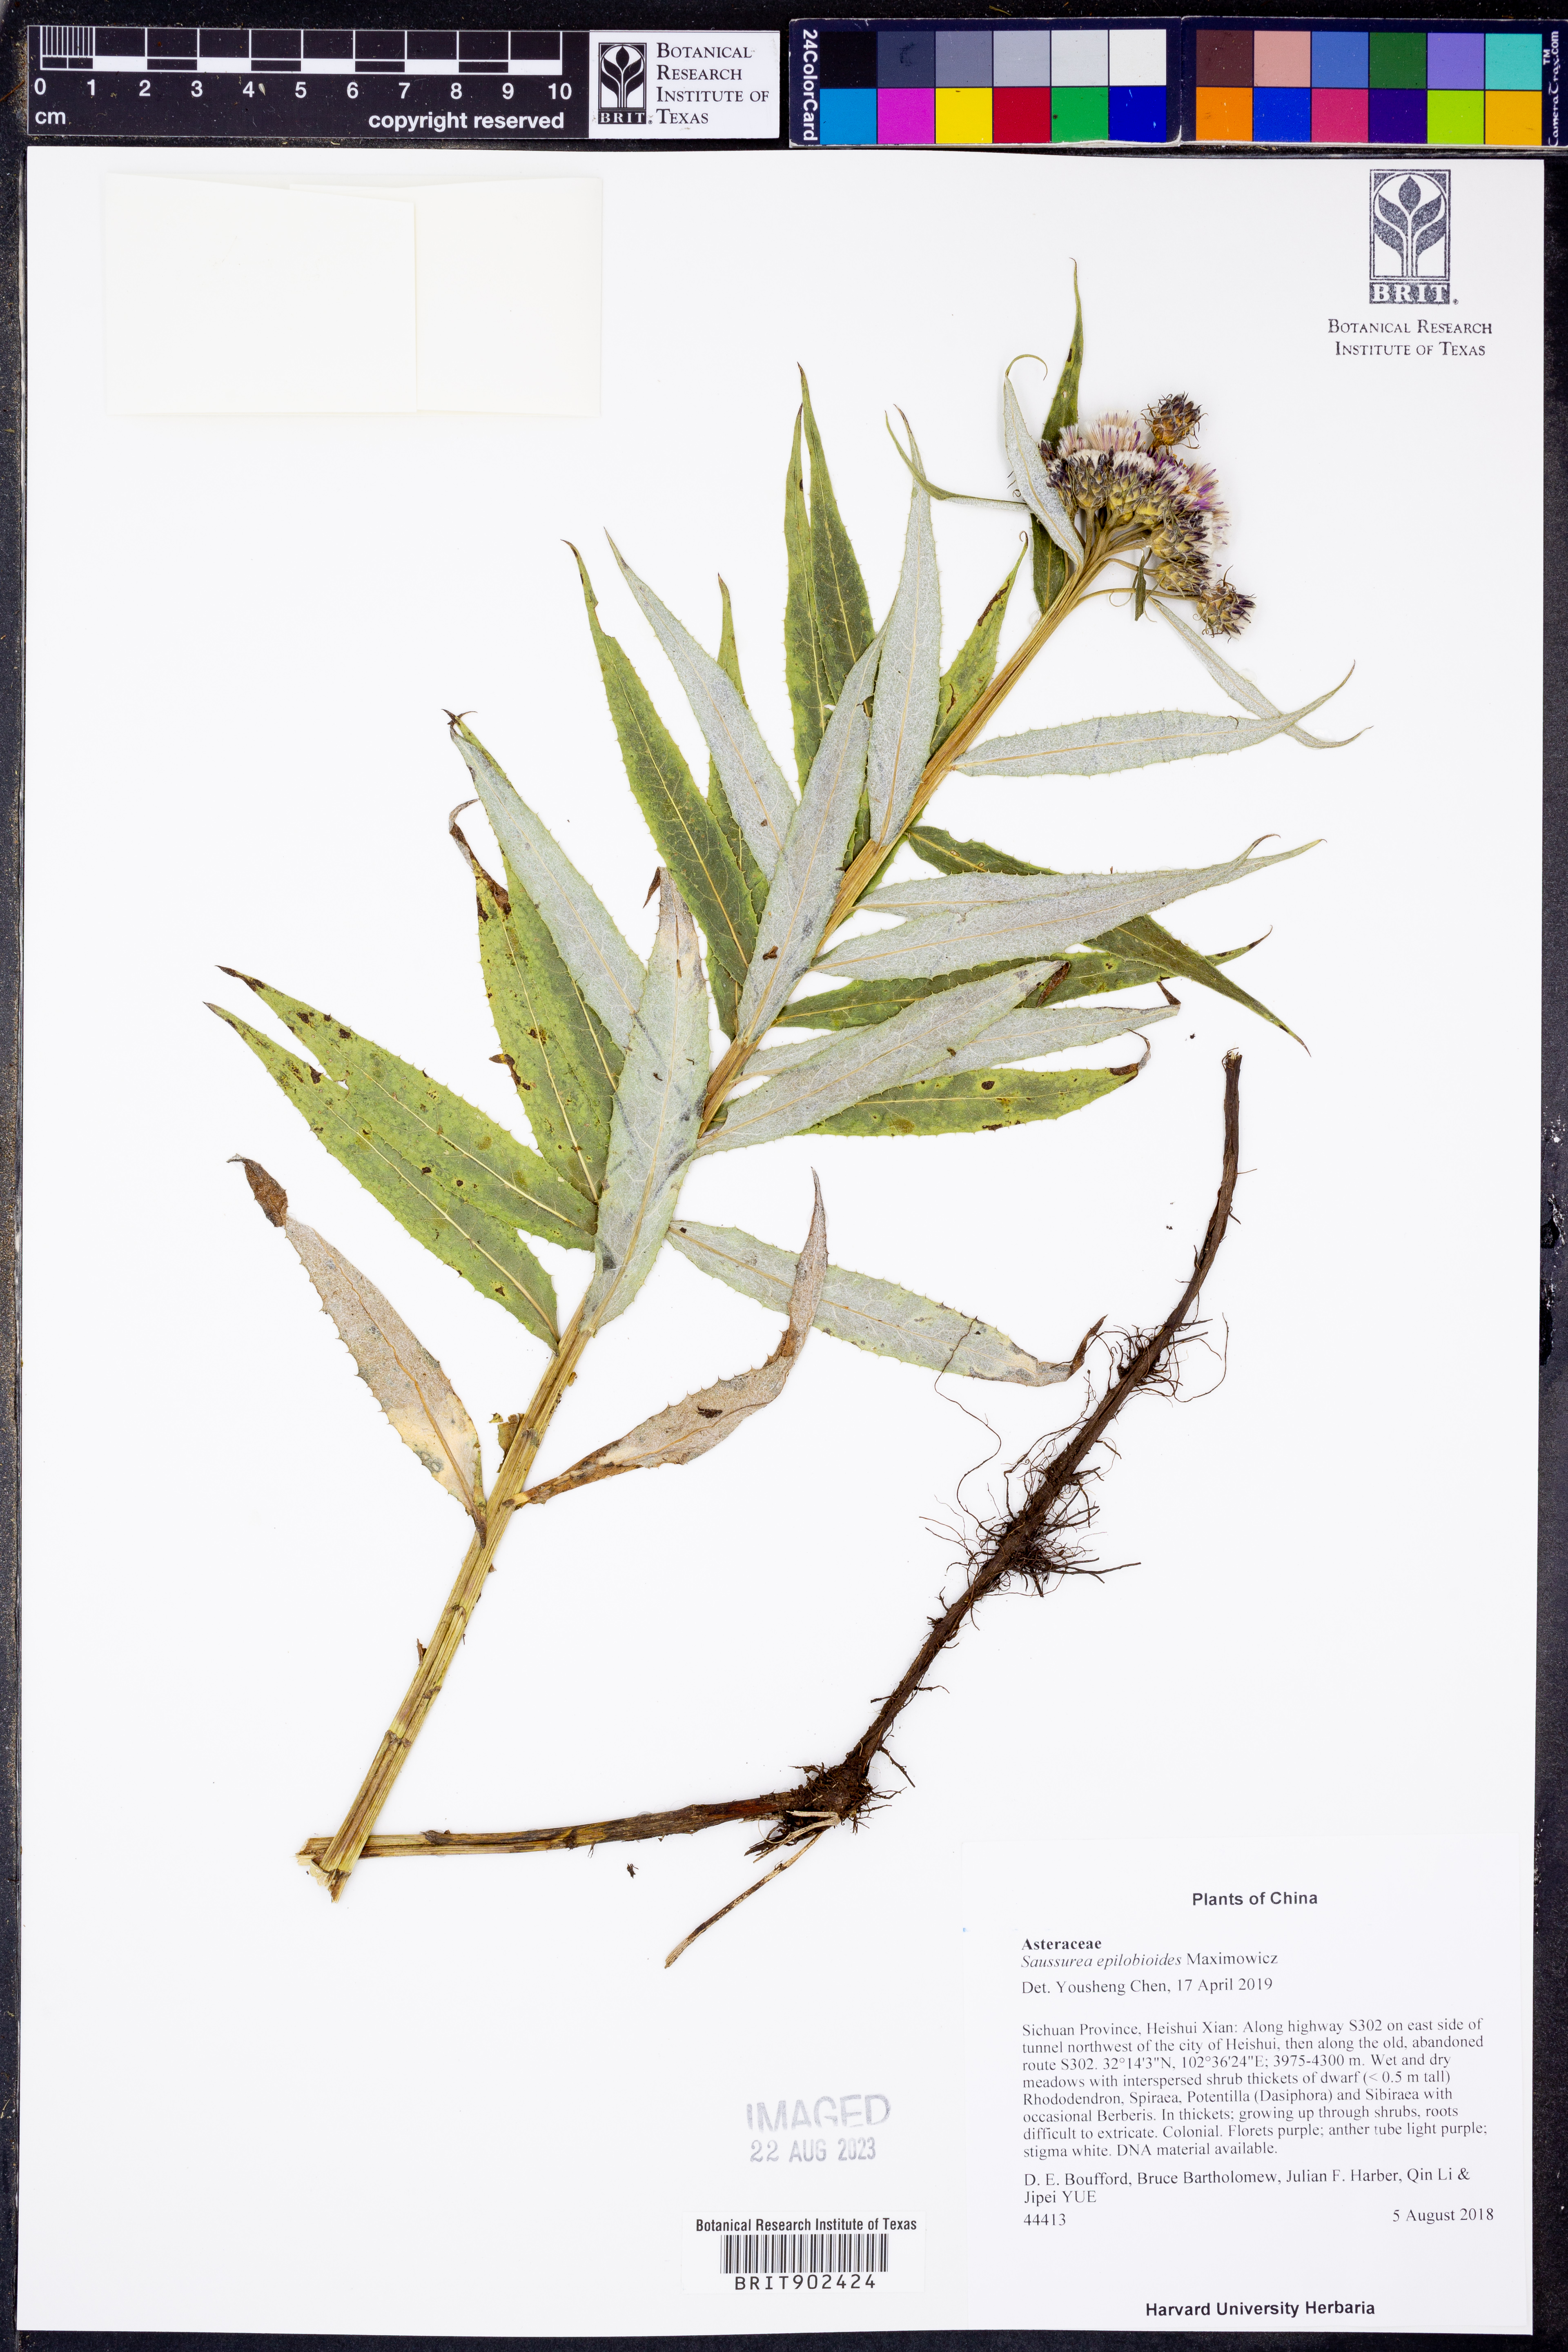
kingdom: Plantae
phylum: Tracheophyta
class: Magnoliopsida
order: Asterales
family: Asteraceae
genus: Saussurea
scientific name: Saussurea epilobioides
